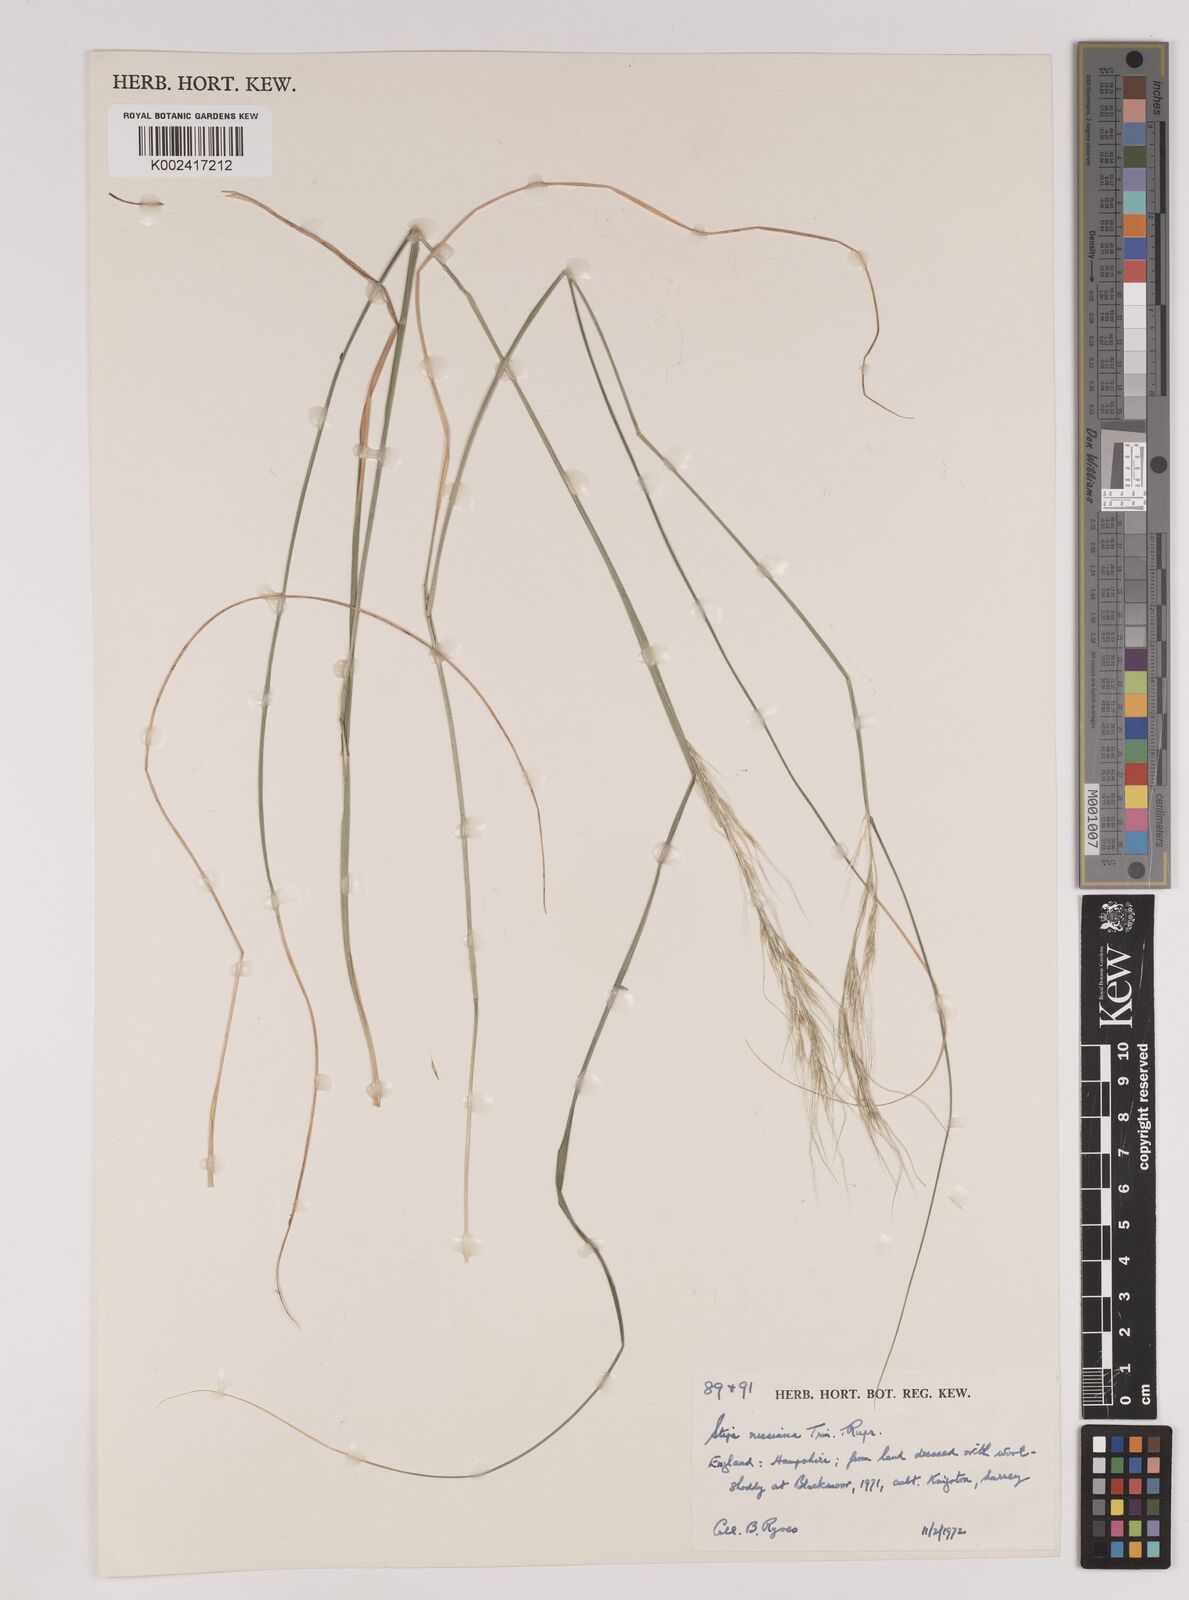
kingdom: Plantae
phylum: Tracheophyta
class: Liliopsida
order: Poales
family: Poaceae
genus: Nassella
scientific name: Nassella neesiana
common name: American needle-grass
